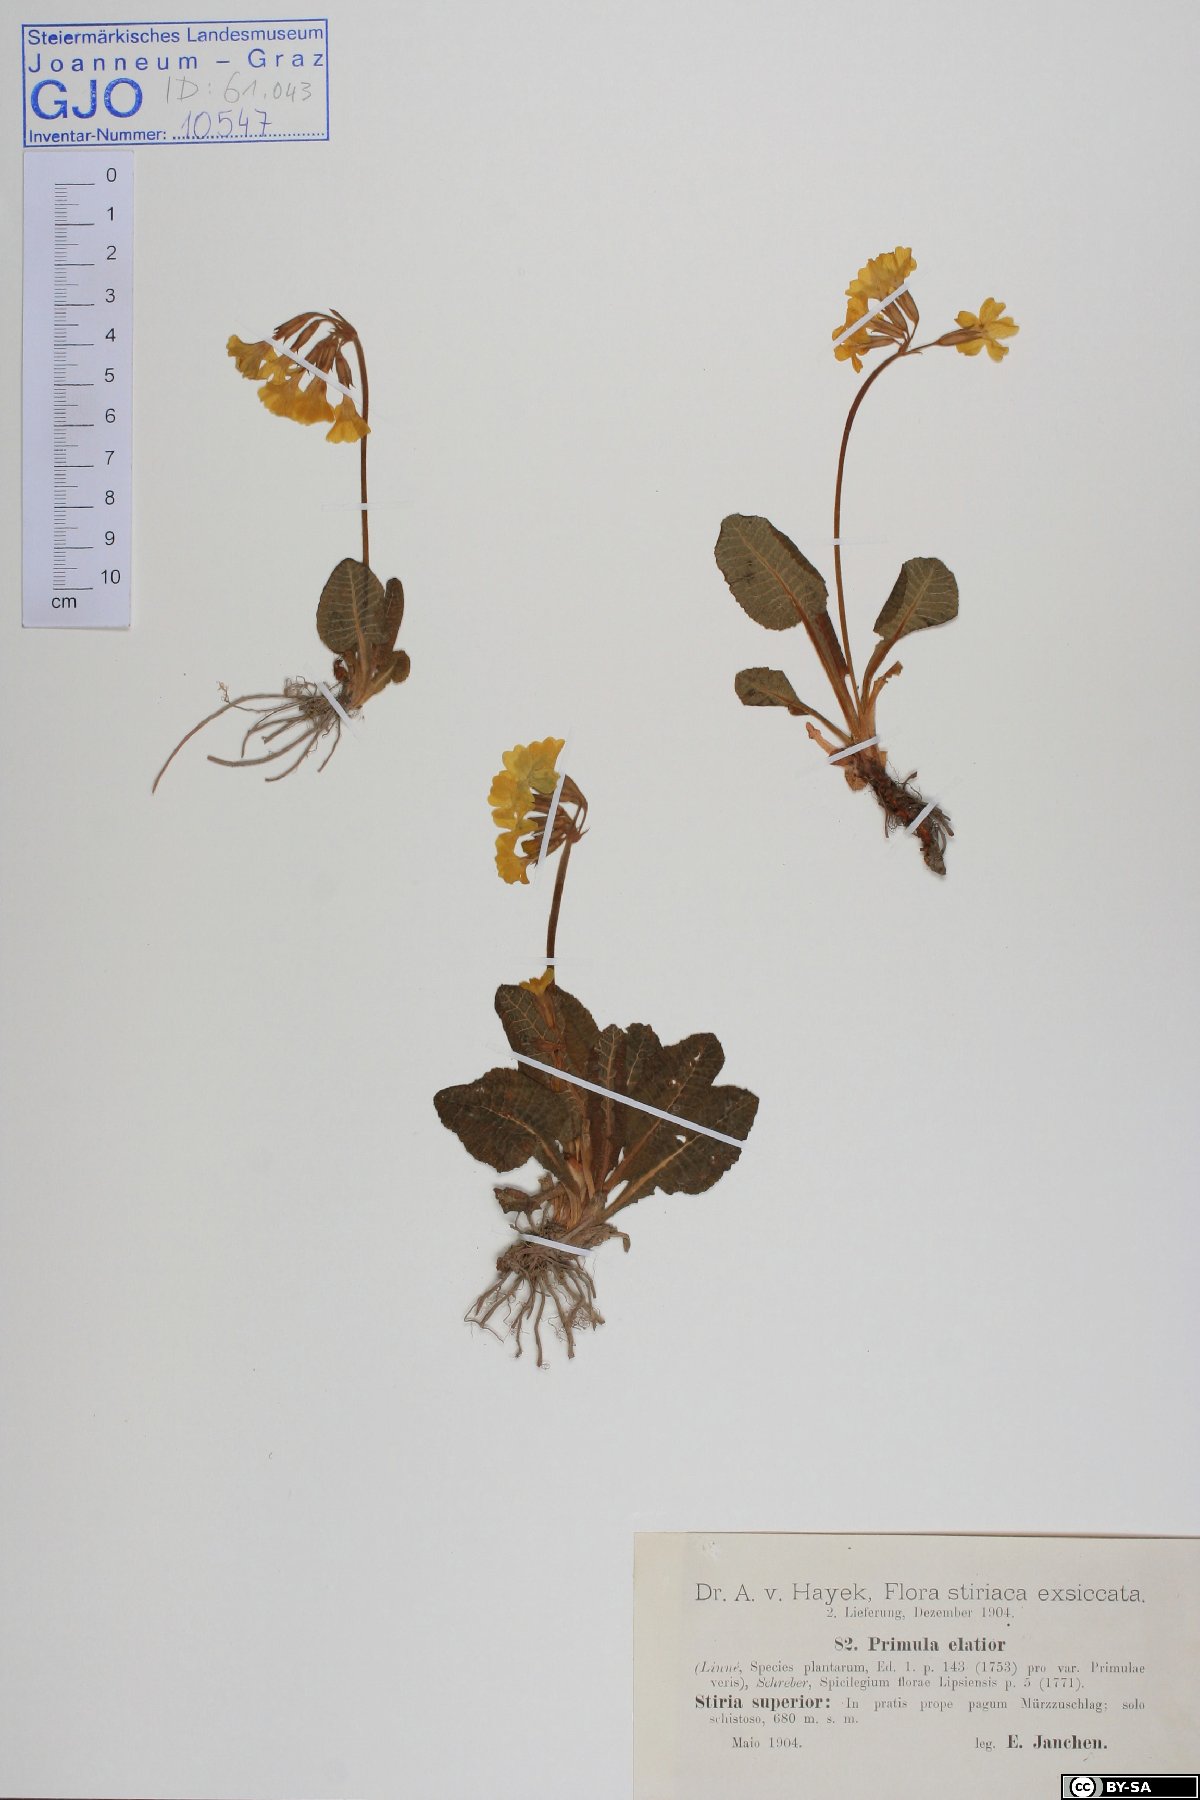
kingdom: Plantae
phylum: Tracheophyta
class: Magnoliopsida
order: Ericales
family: Primulaceae
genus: Primula
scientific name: Primula elatior
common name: Oxlip
